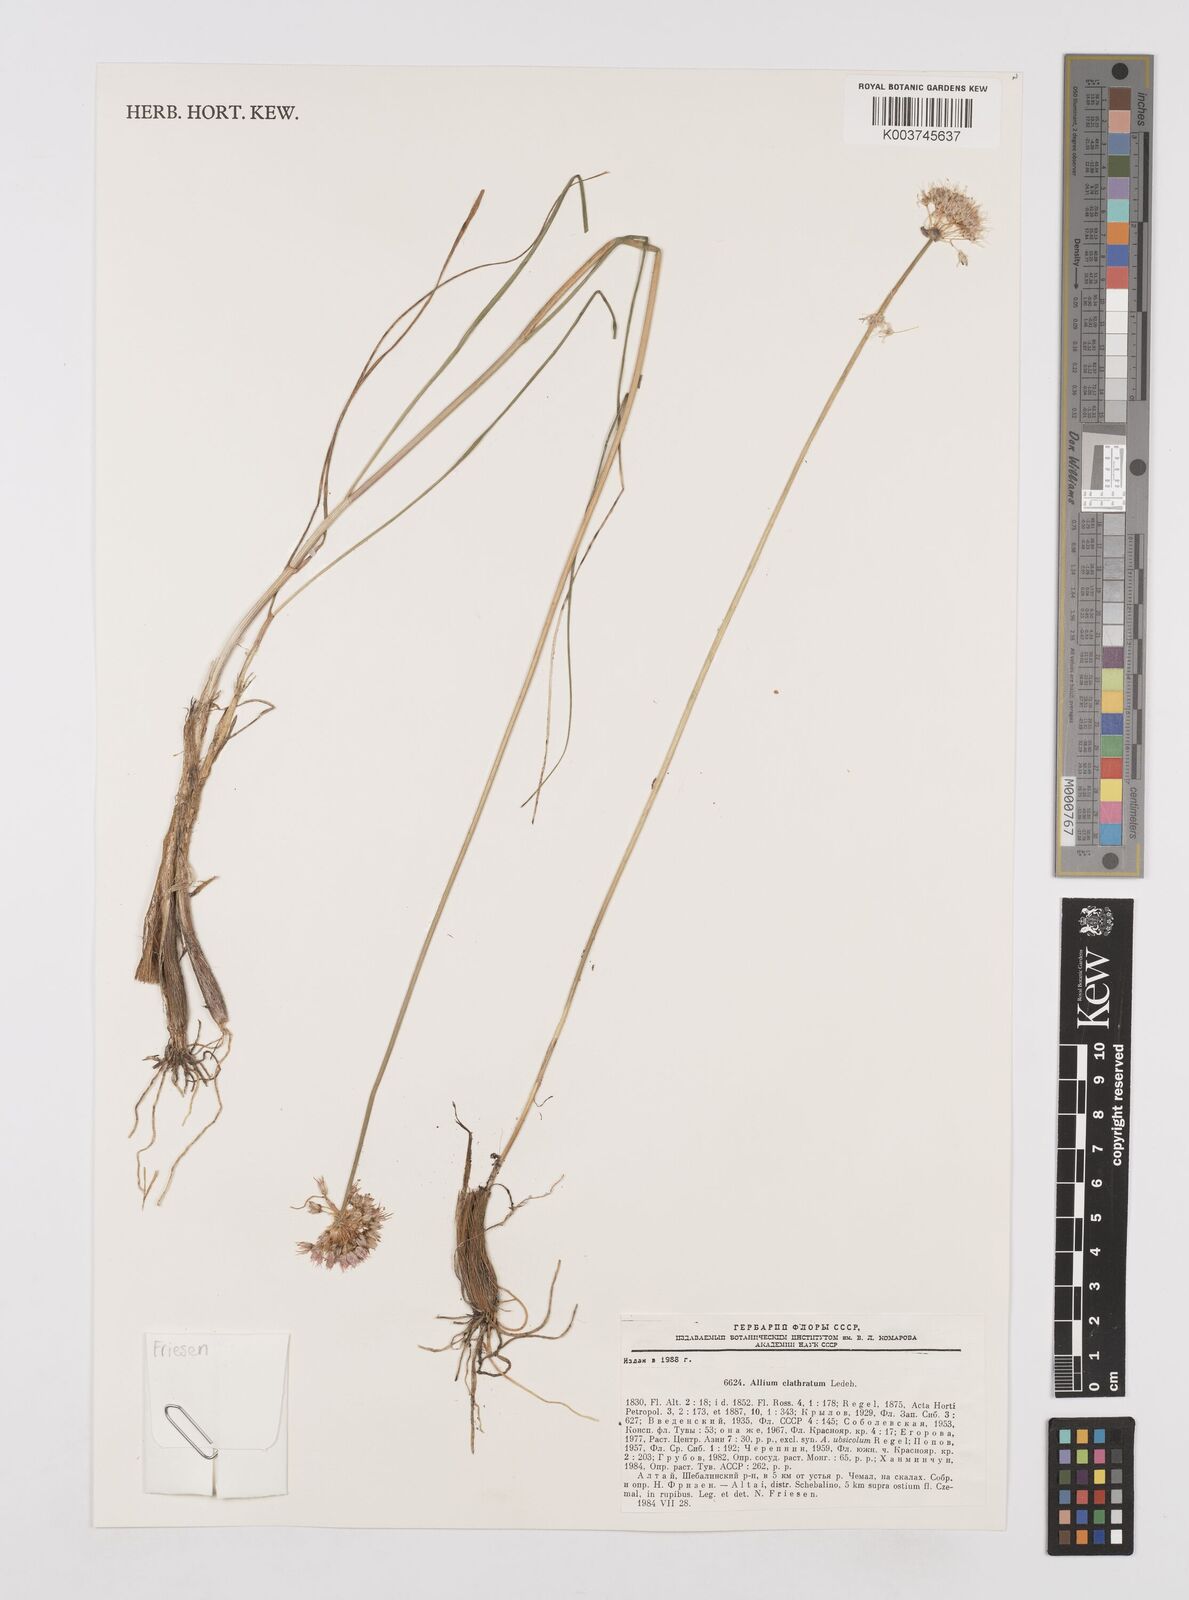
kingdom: Plantae
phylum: Tracheophyta
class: Liliopsida
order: Asparagales
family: Amaryllidaceae
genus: Allium
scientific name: Allium clathratum
